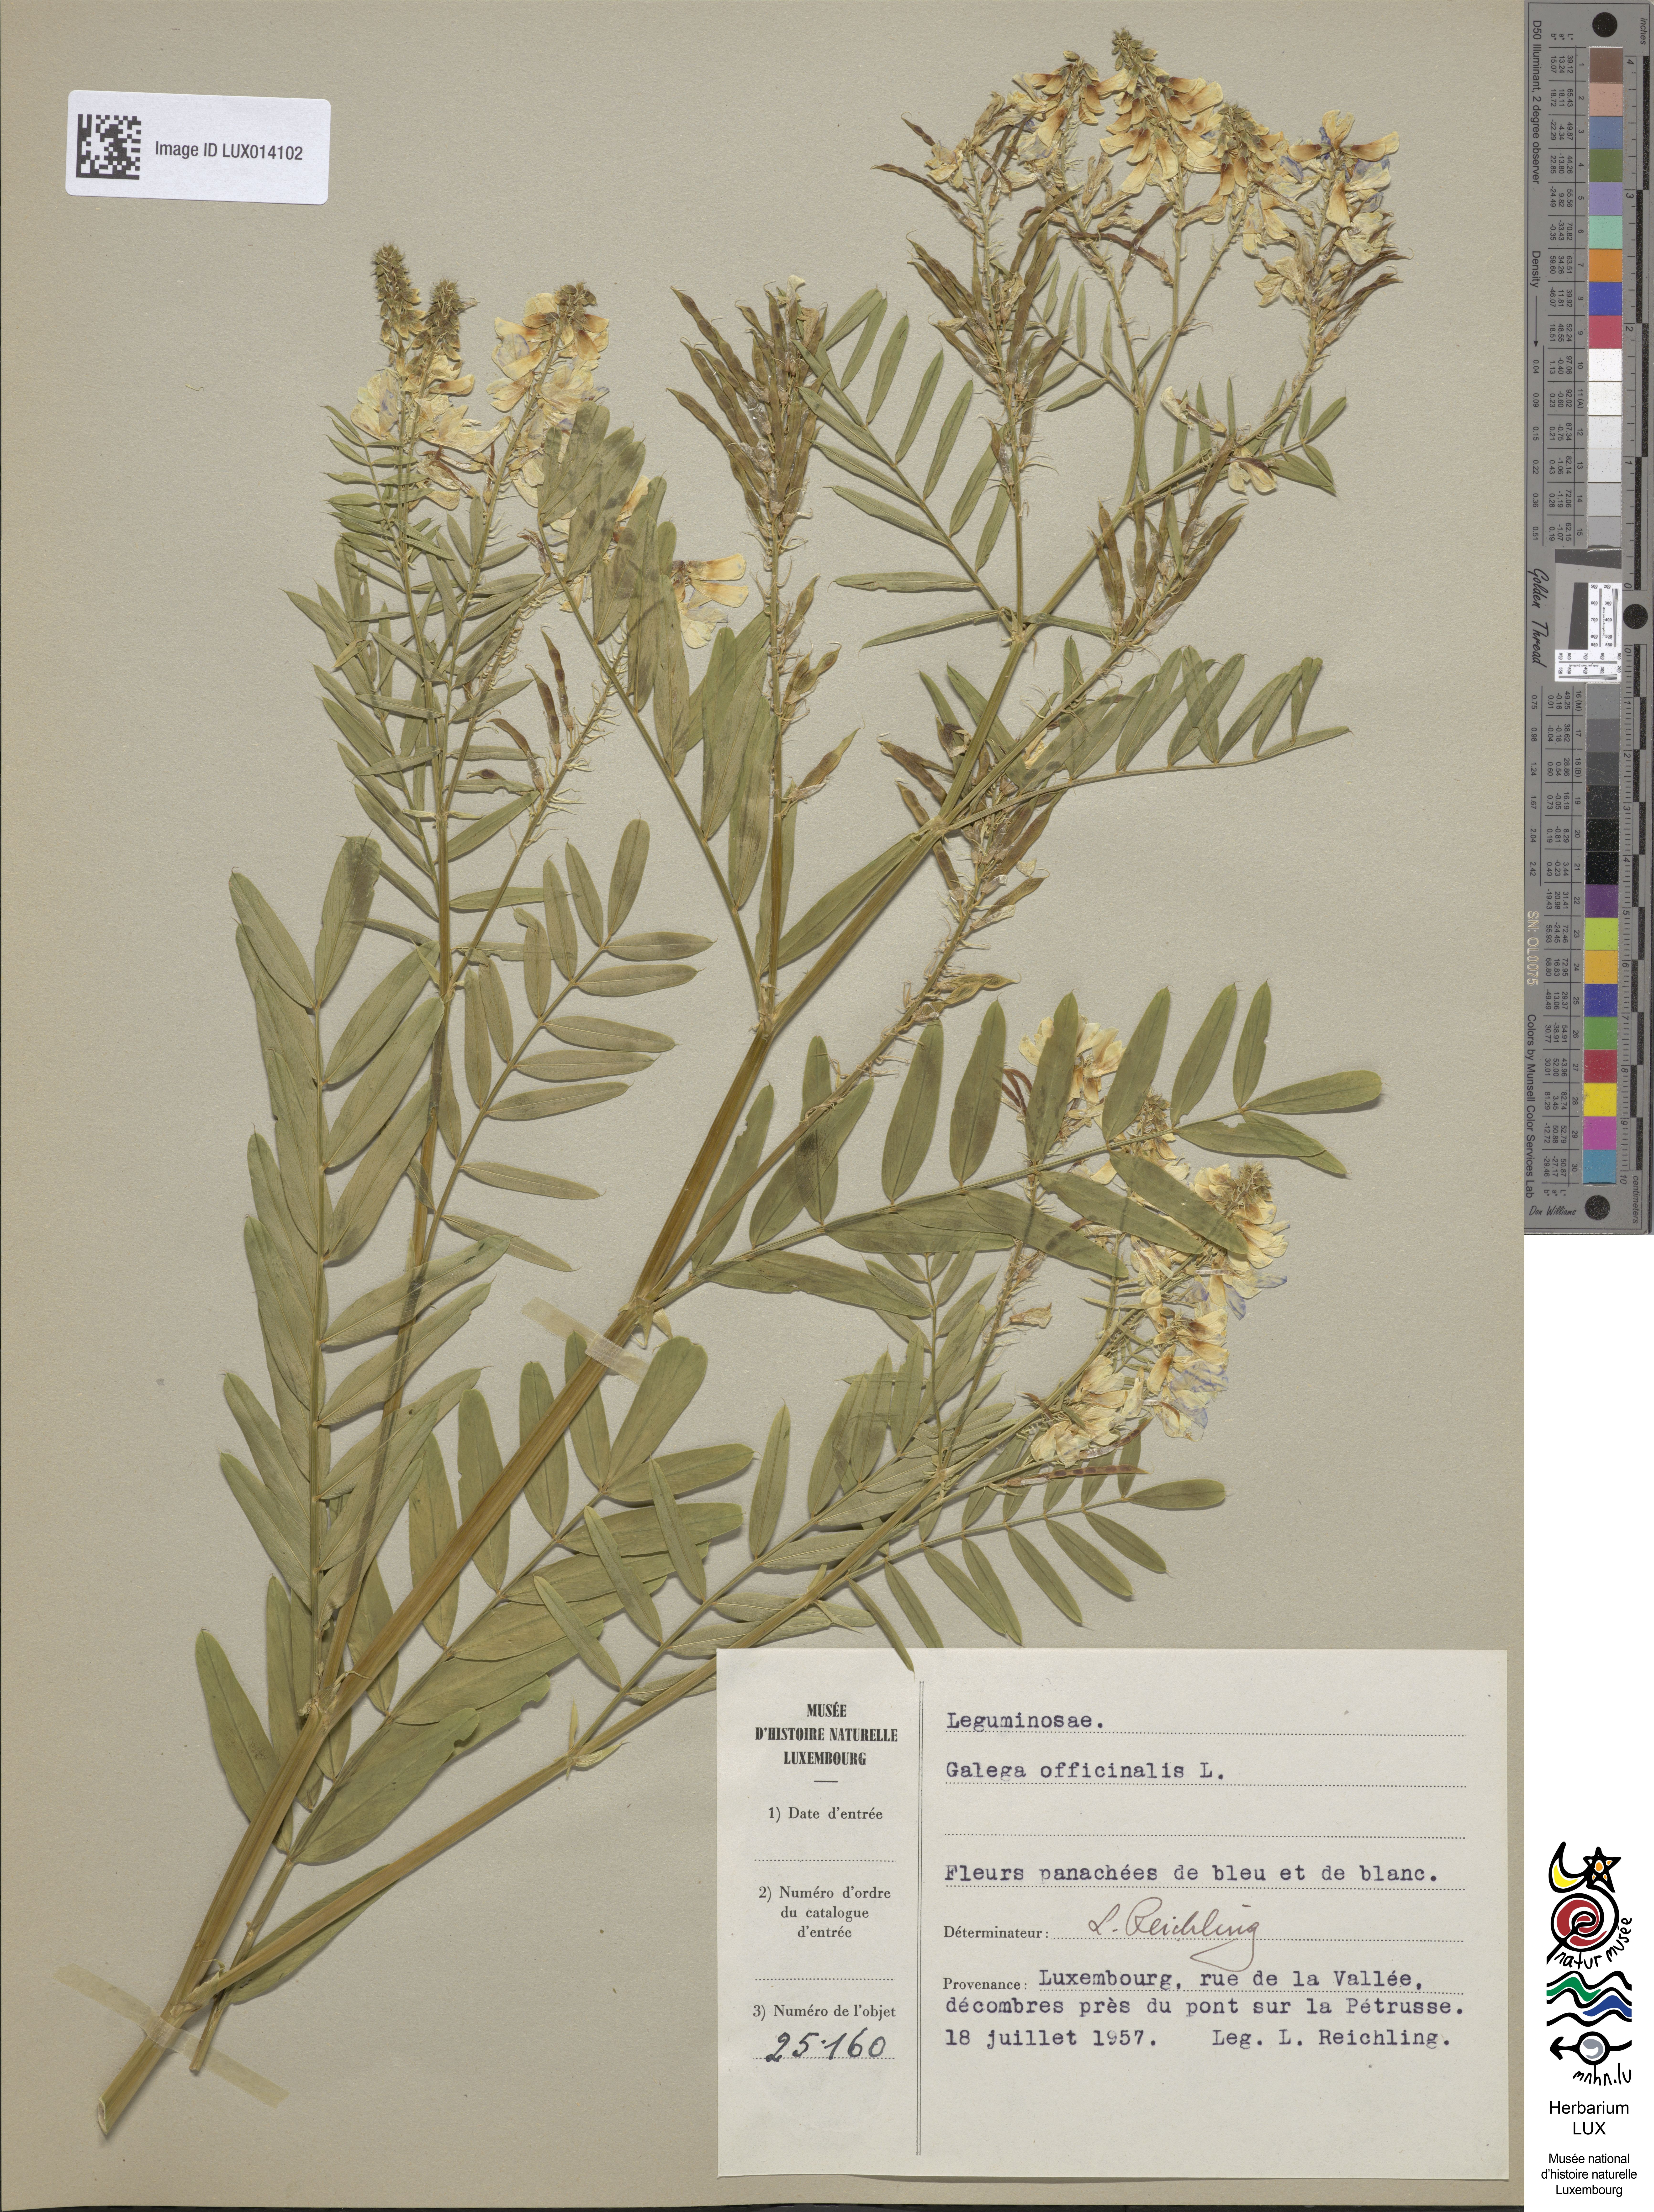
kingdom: Plantae
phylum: Tracheophyta
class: Magnoliopsida
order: Fabales
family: Fabaceae
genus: Galega
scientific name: Galega officinalis
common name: Goat's-rue
